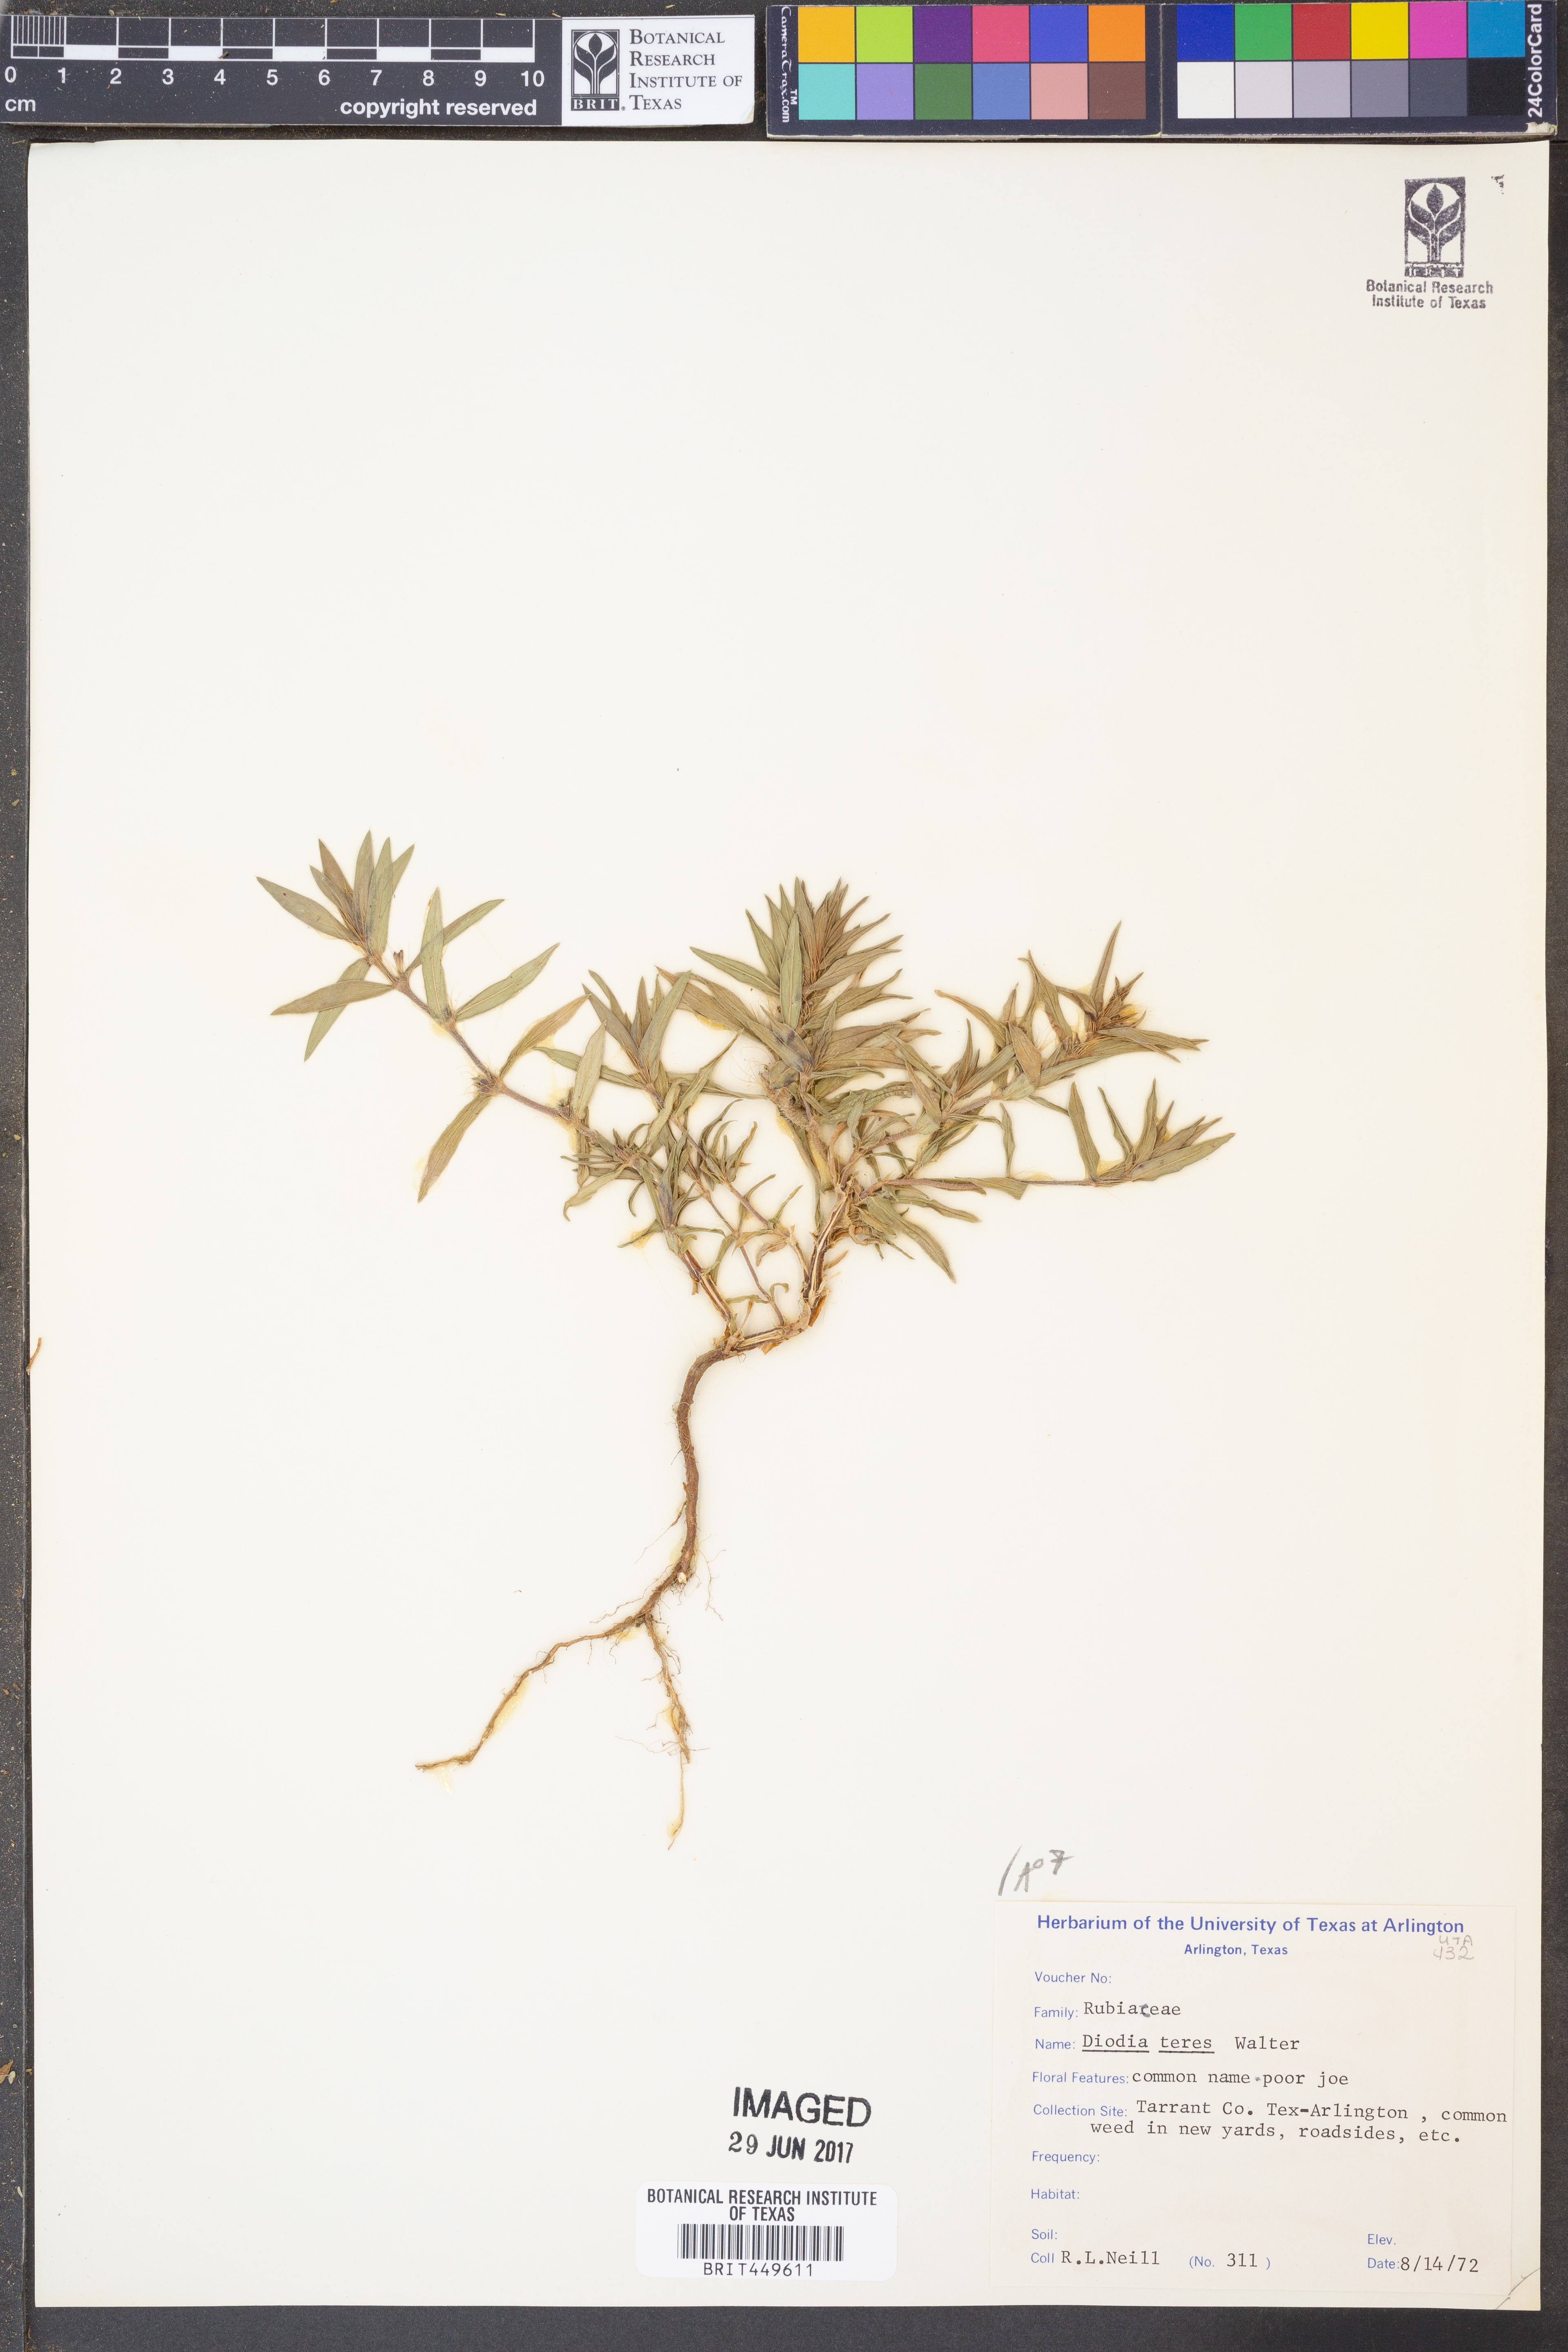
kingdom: Plantae
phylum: Tracheophyta
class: Magnoliopsida
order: Gentianales
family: Rubiaceae
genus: Hexasepalum
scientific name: Hexasepalum teres
